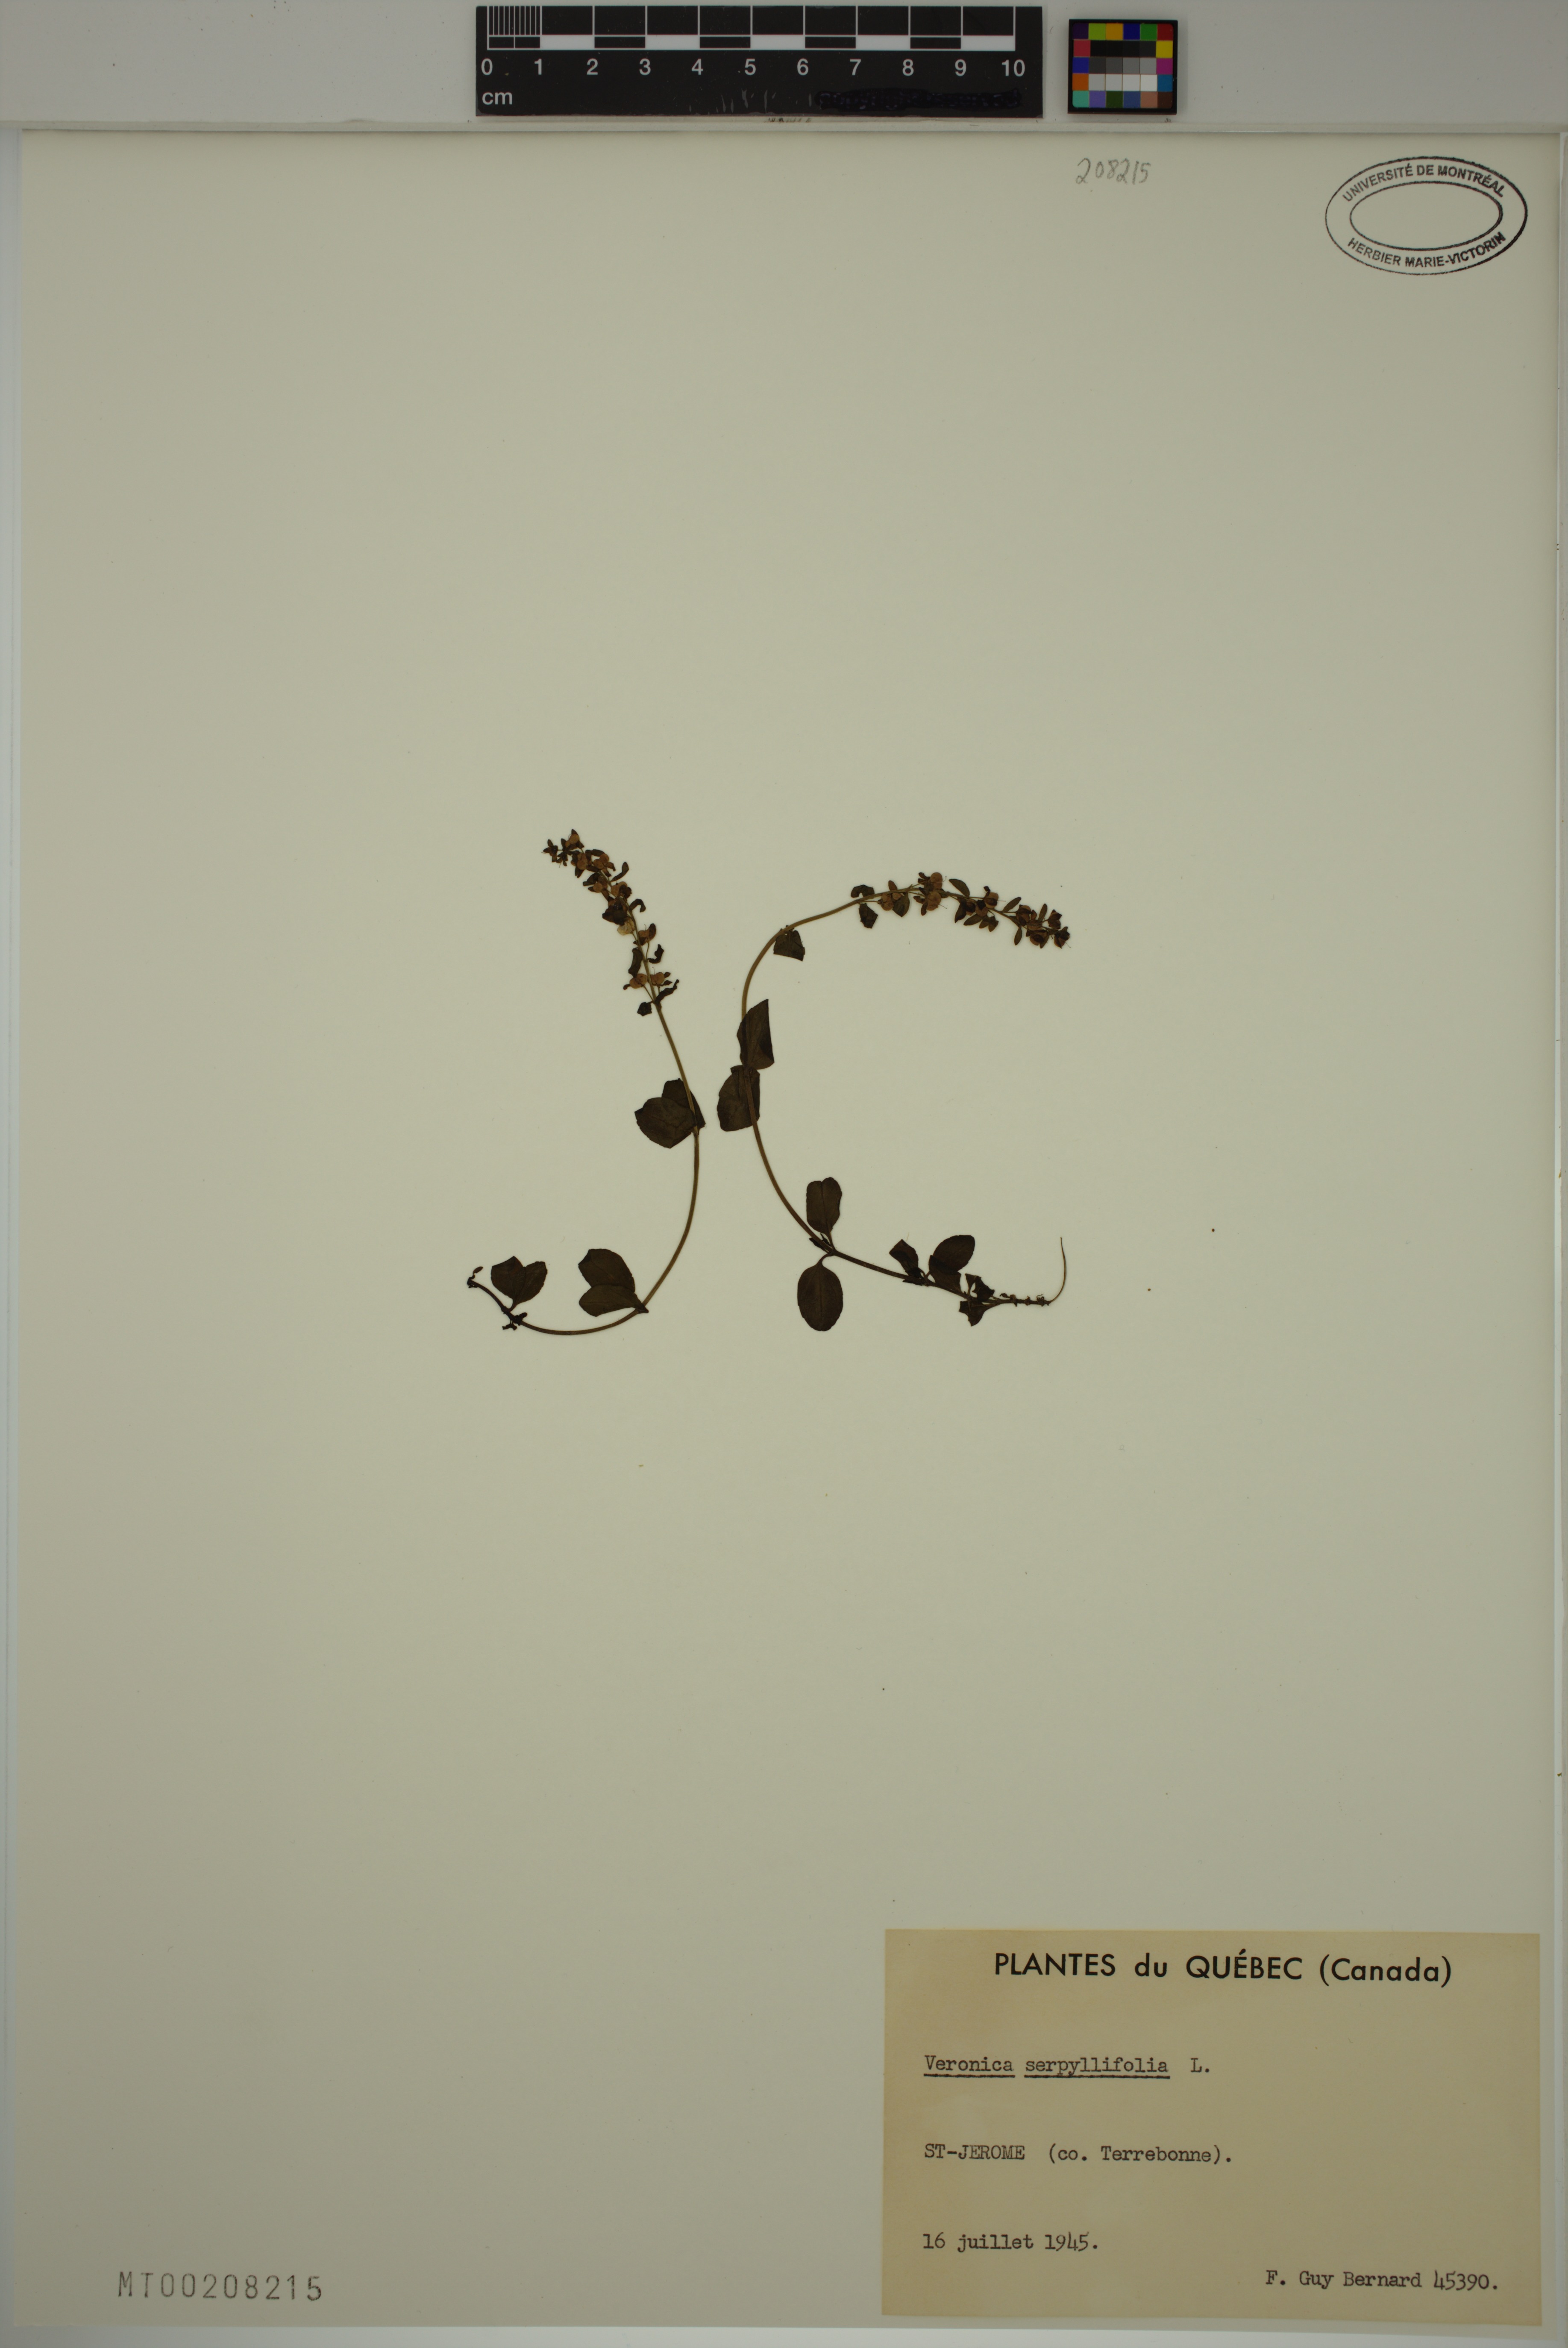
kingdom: Plantae
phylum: Tracheophyta
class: Magnoliopsida
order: Lamiales
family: Plantaginaceae
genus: Veronica
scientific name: Veronica serpyllifolia
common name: Thyme-leaved speedwell
